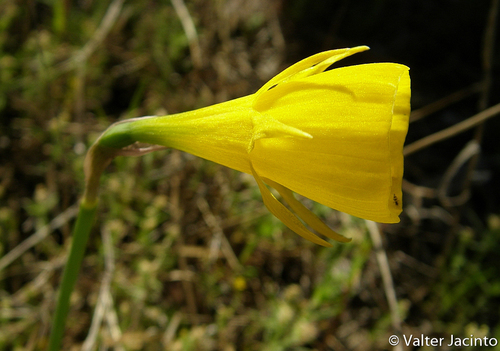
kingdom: Plantae
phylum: Tracheophyta
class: Liliopsida
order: Asparagales
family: Amaryllidaceae
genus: Narcissus
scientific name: Narcissus bulbocodium
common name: Hoop-petticoat daffodil
